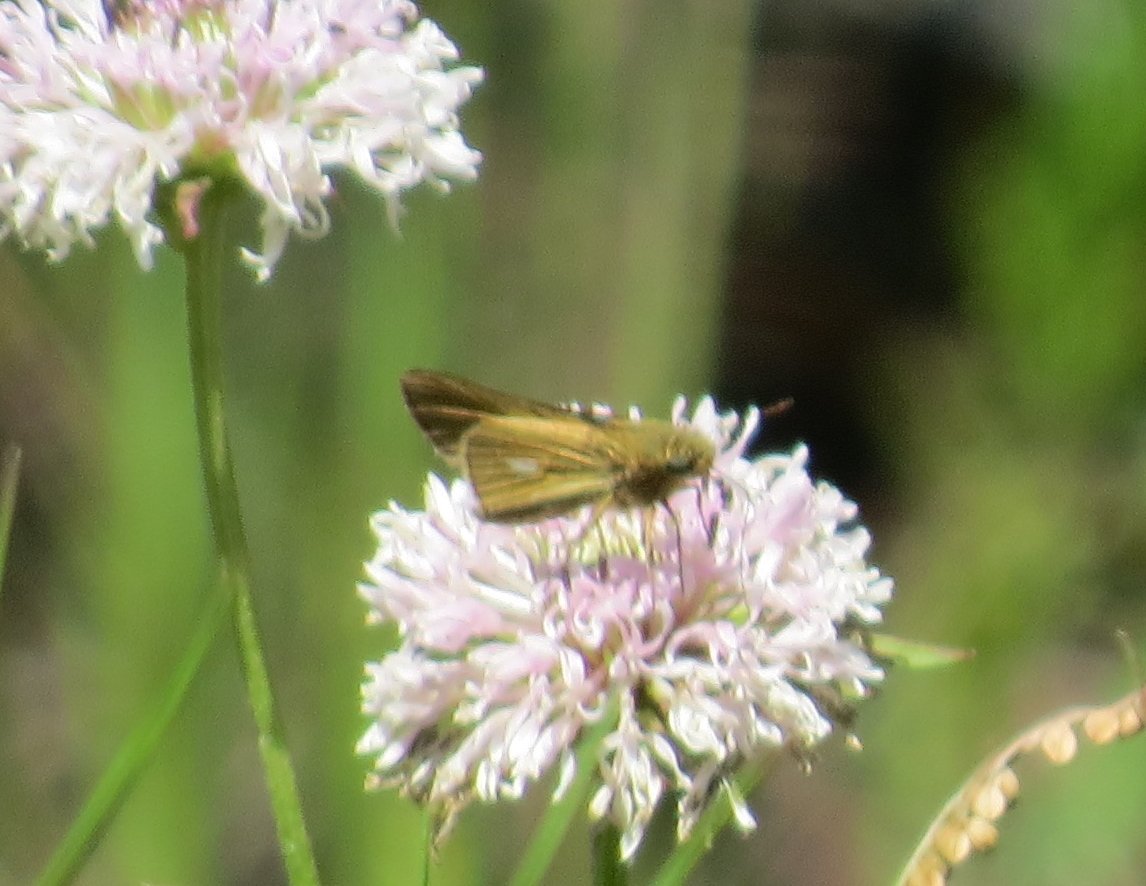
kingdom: Animalia
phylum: Arthropoda
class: Insecta
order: Lepidoptera
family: Hesperiidae
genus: Panoquina
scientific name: Panoquina panoquin
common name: Salt Marsh Skipper
